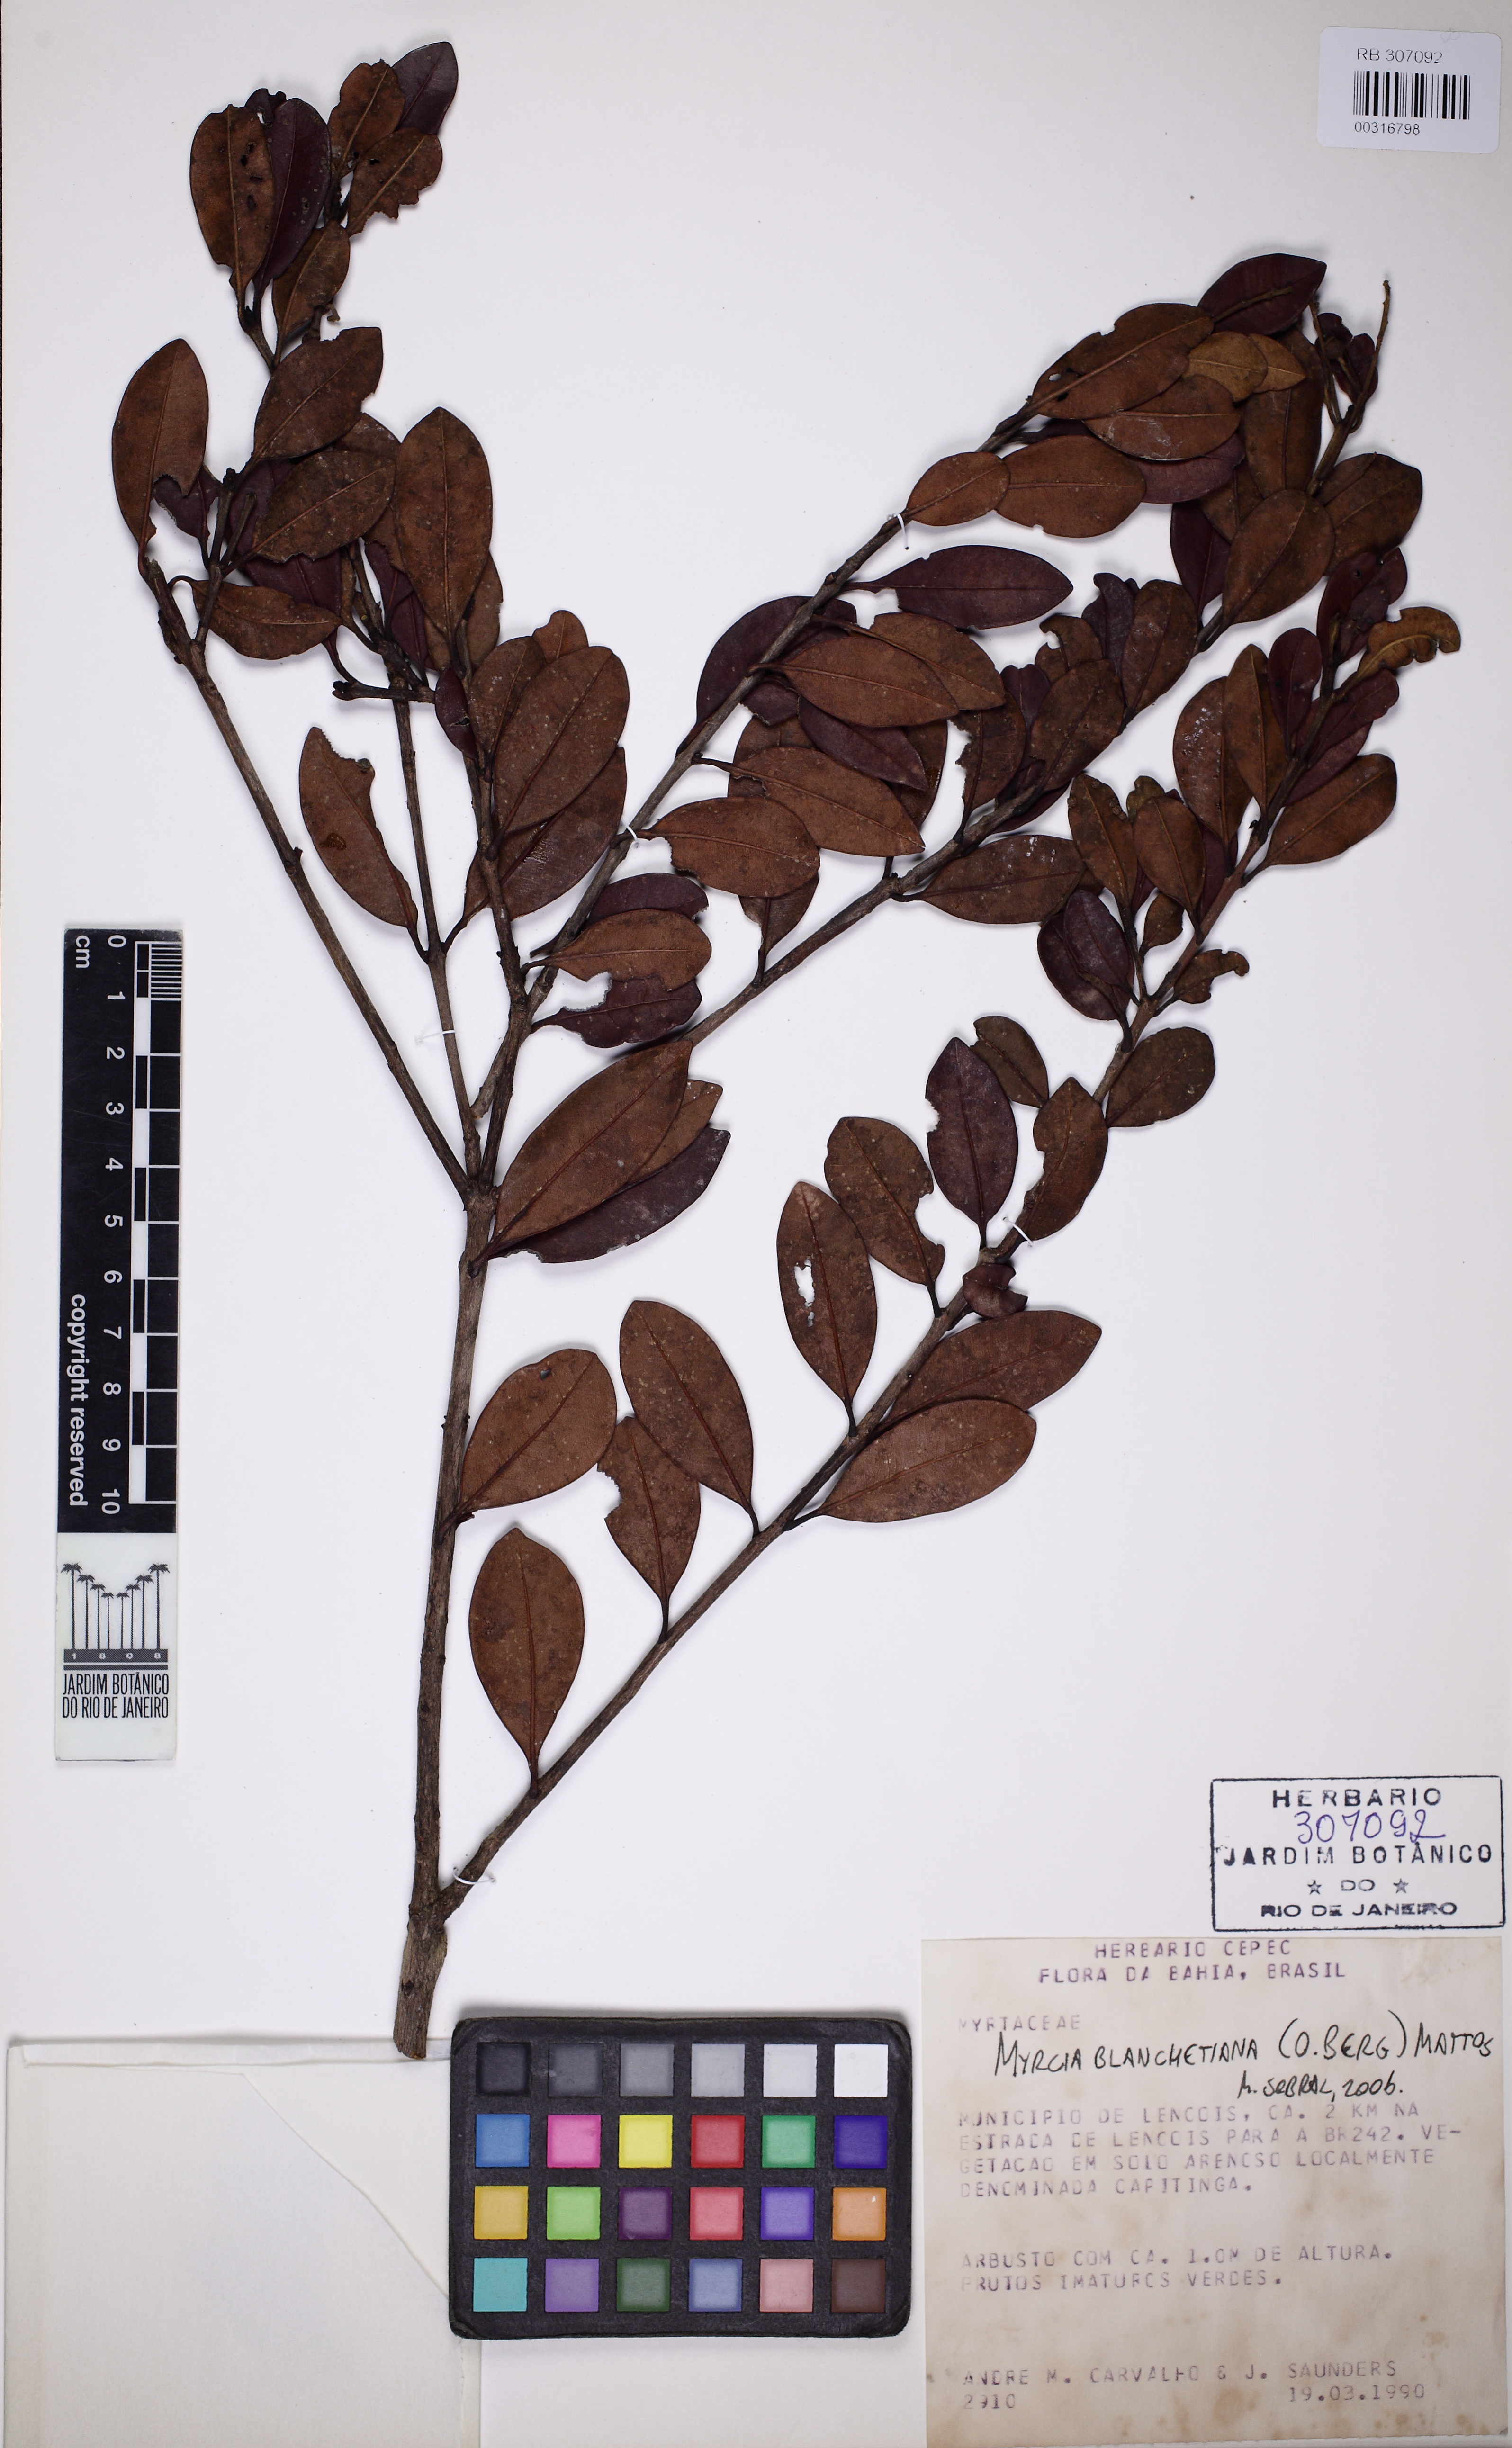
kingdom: Plantae
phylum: Tracheophyta
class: Magnoliopsida
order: Myrtales
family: Myrtaceae
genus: Myrcia
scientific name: Myrcia blanchetiana
